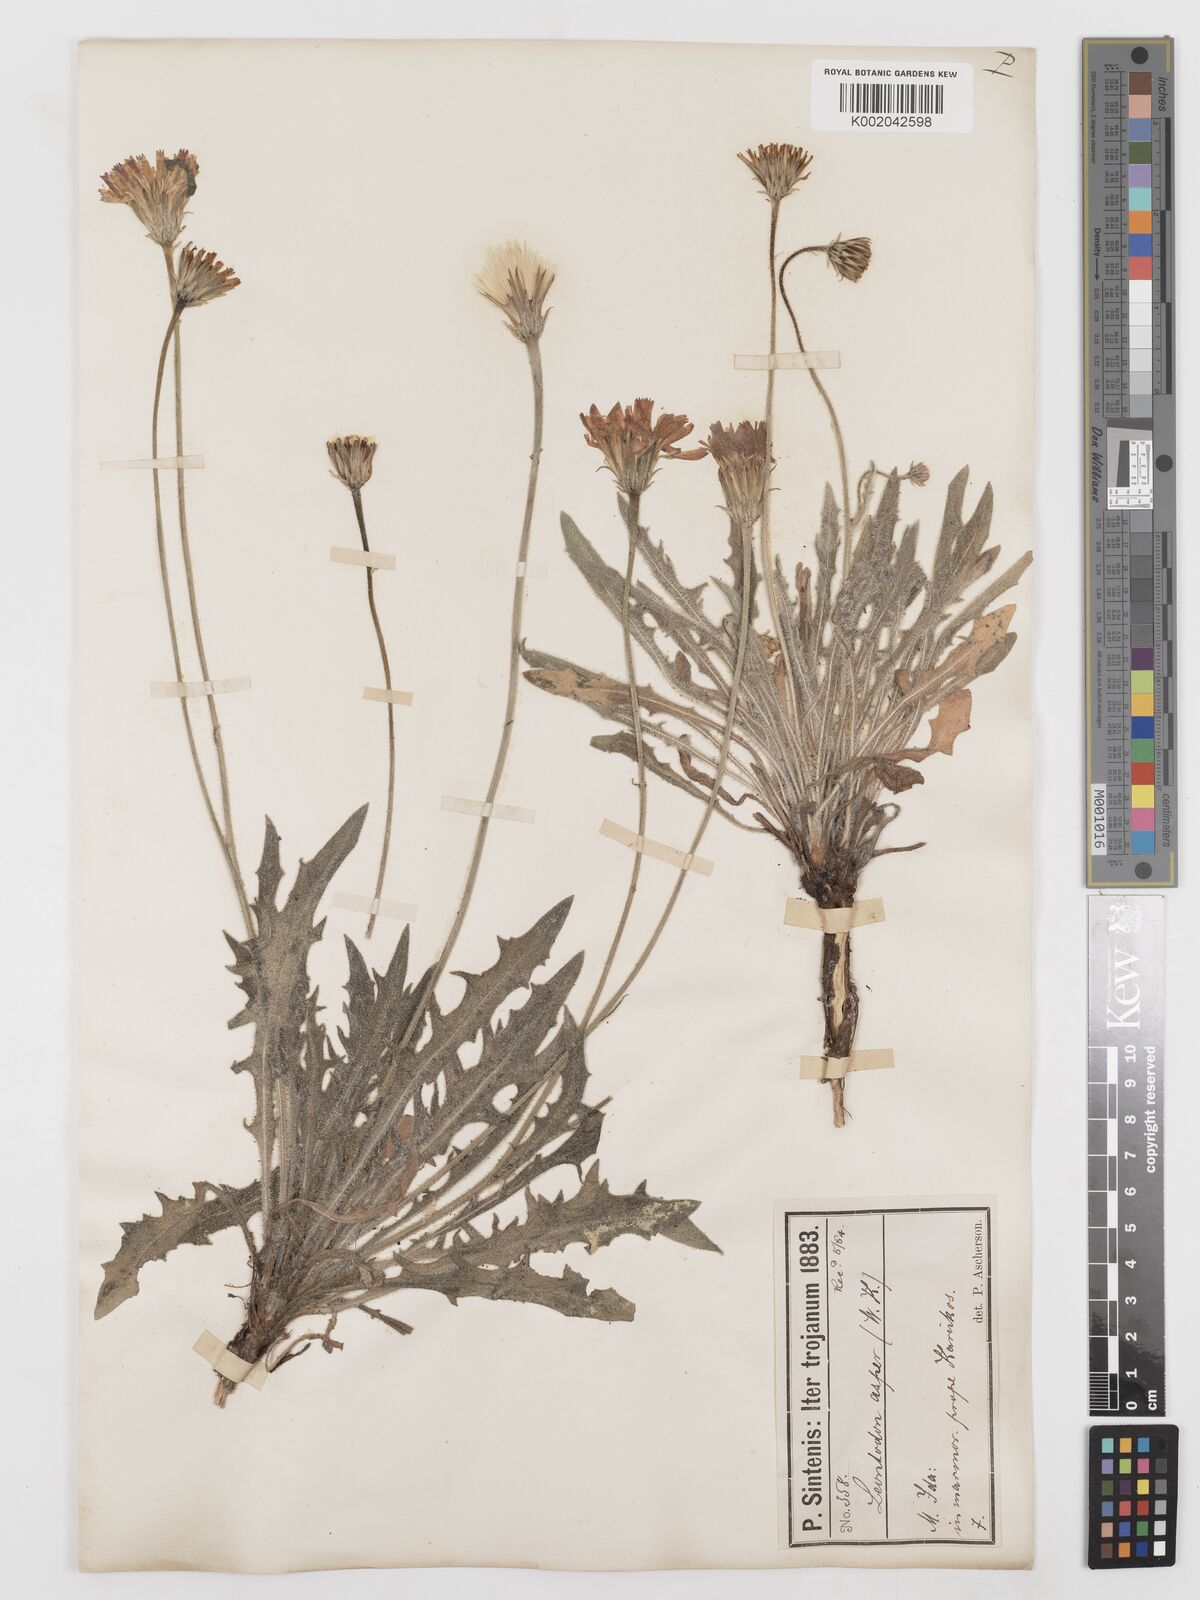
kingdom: Plantae
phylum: Tracheophyta
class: Magnoliopsida
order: Asterales
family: Asteraceae
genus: Leontodon
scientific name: Leontodon
